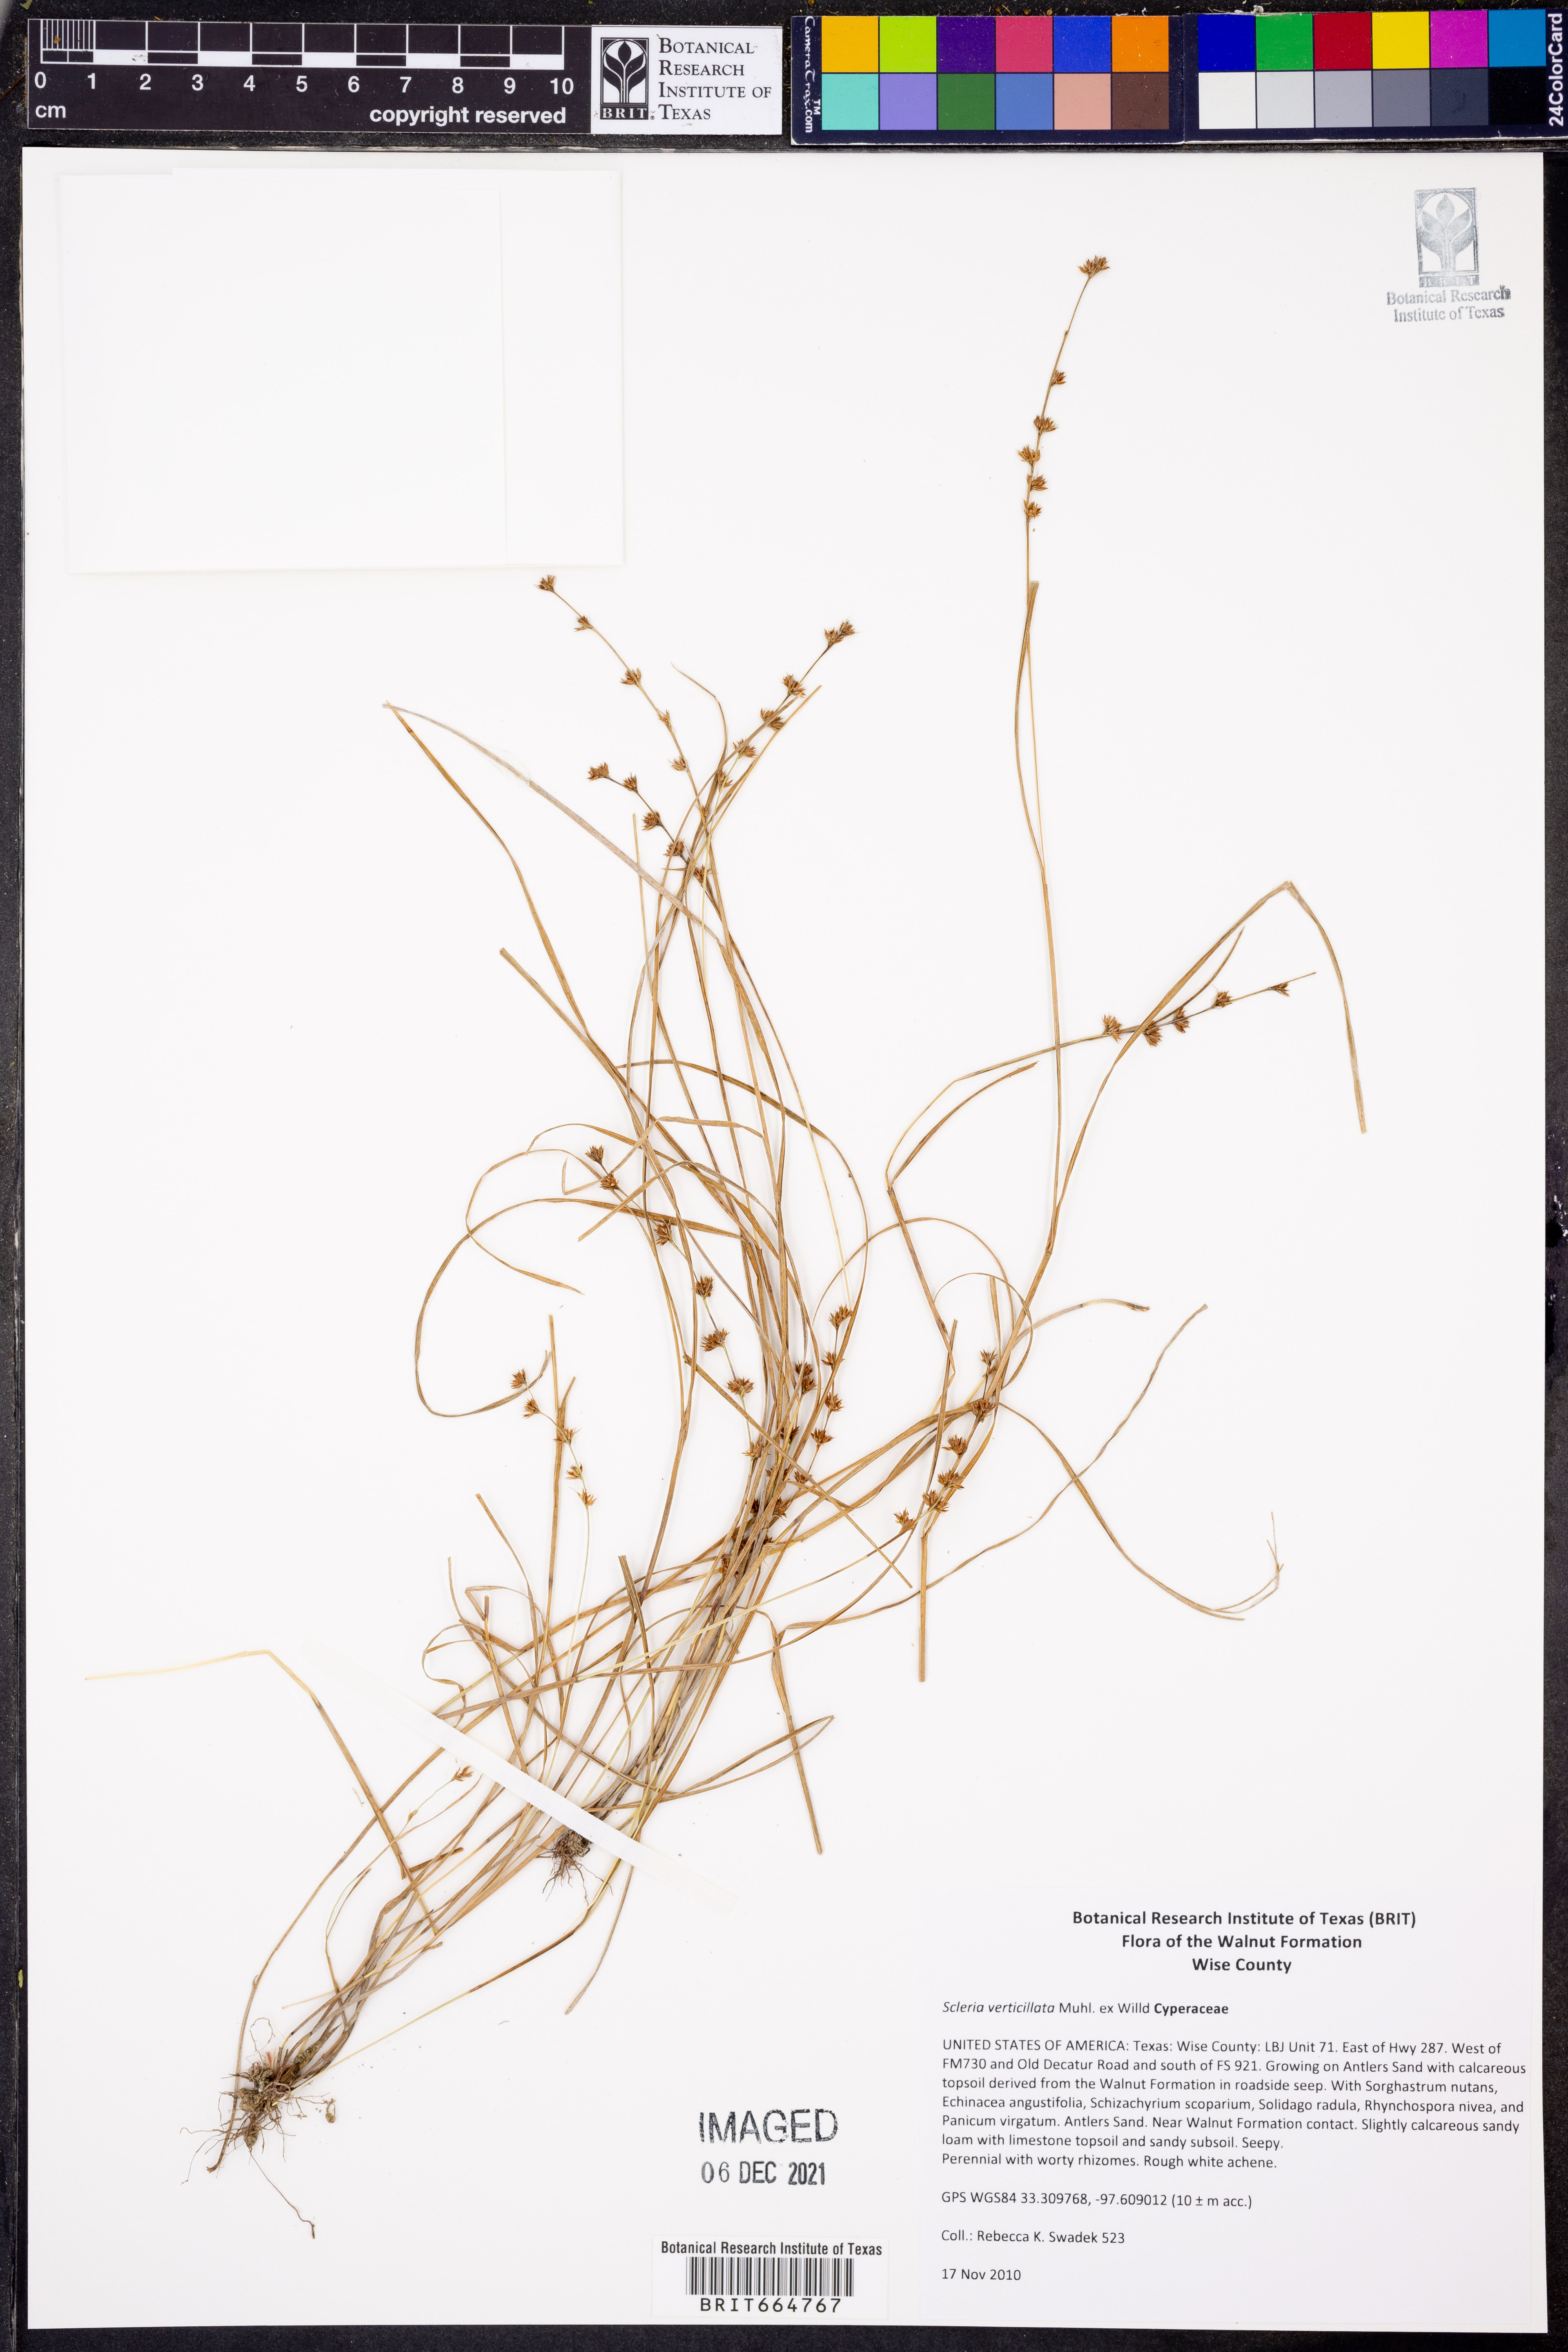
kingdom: Plantae
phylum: Tracheophyta
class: Liliopsida
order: Poales
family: Cyperaceae
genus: Scleria
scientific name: Scleria verticillata
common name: Low nutrush
